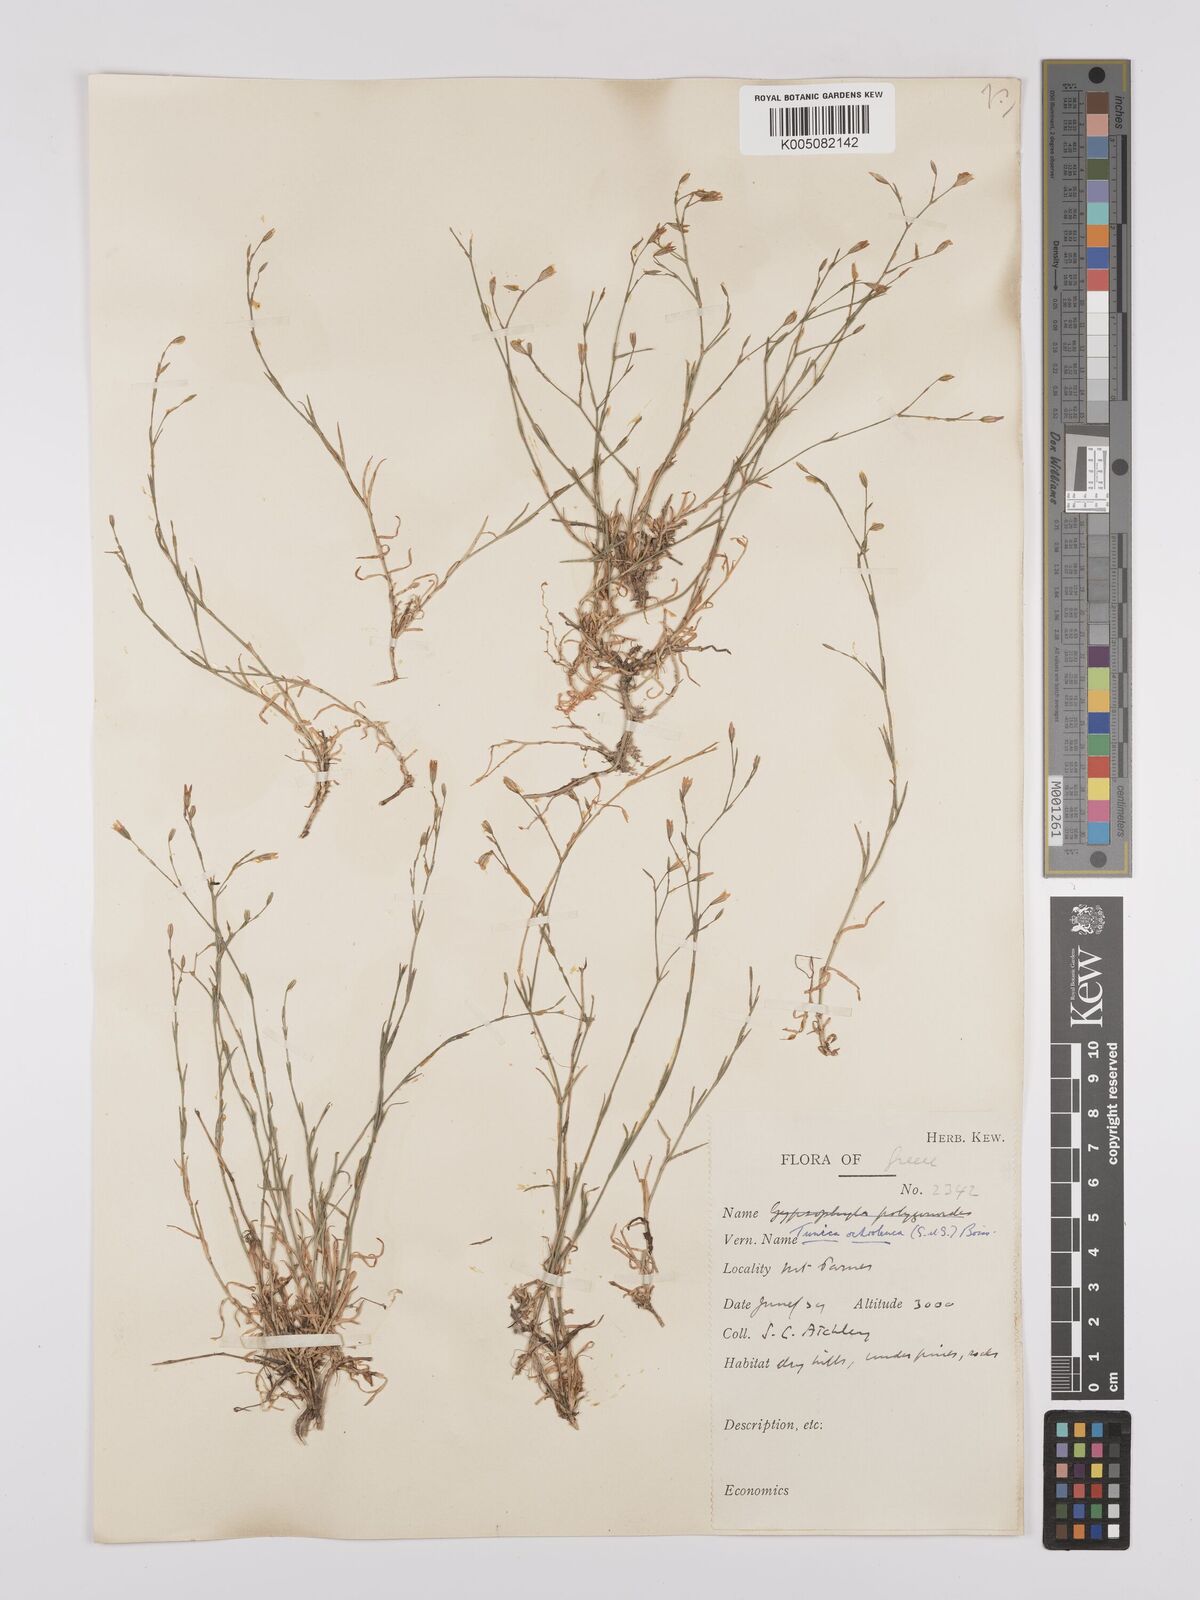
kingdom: Plantae
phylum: Tracheophyta
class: Magnoliopsida
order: Caryophyllales
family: Caryophyllaceae
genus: Petrorhagia
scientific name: Petrorhagia ochroleuca
